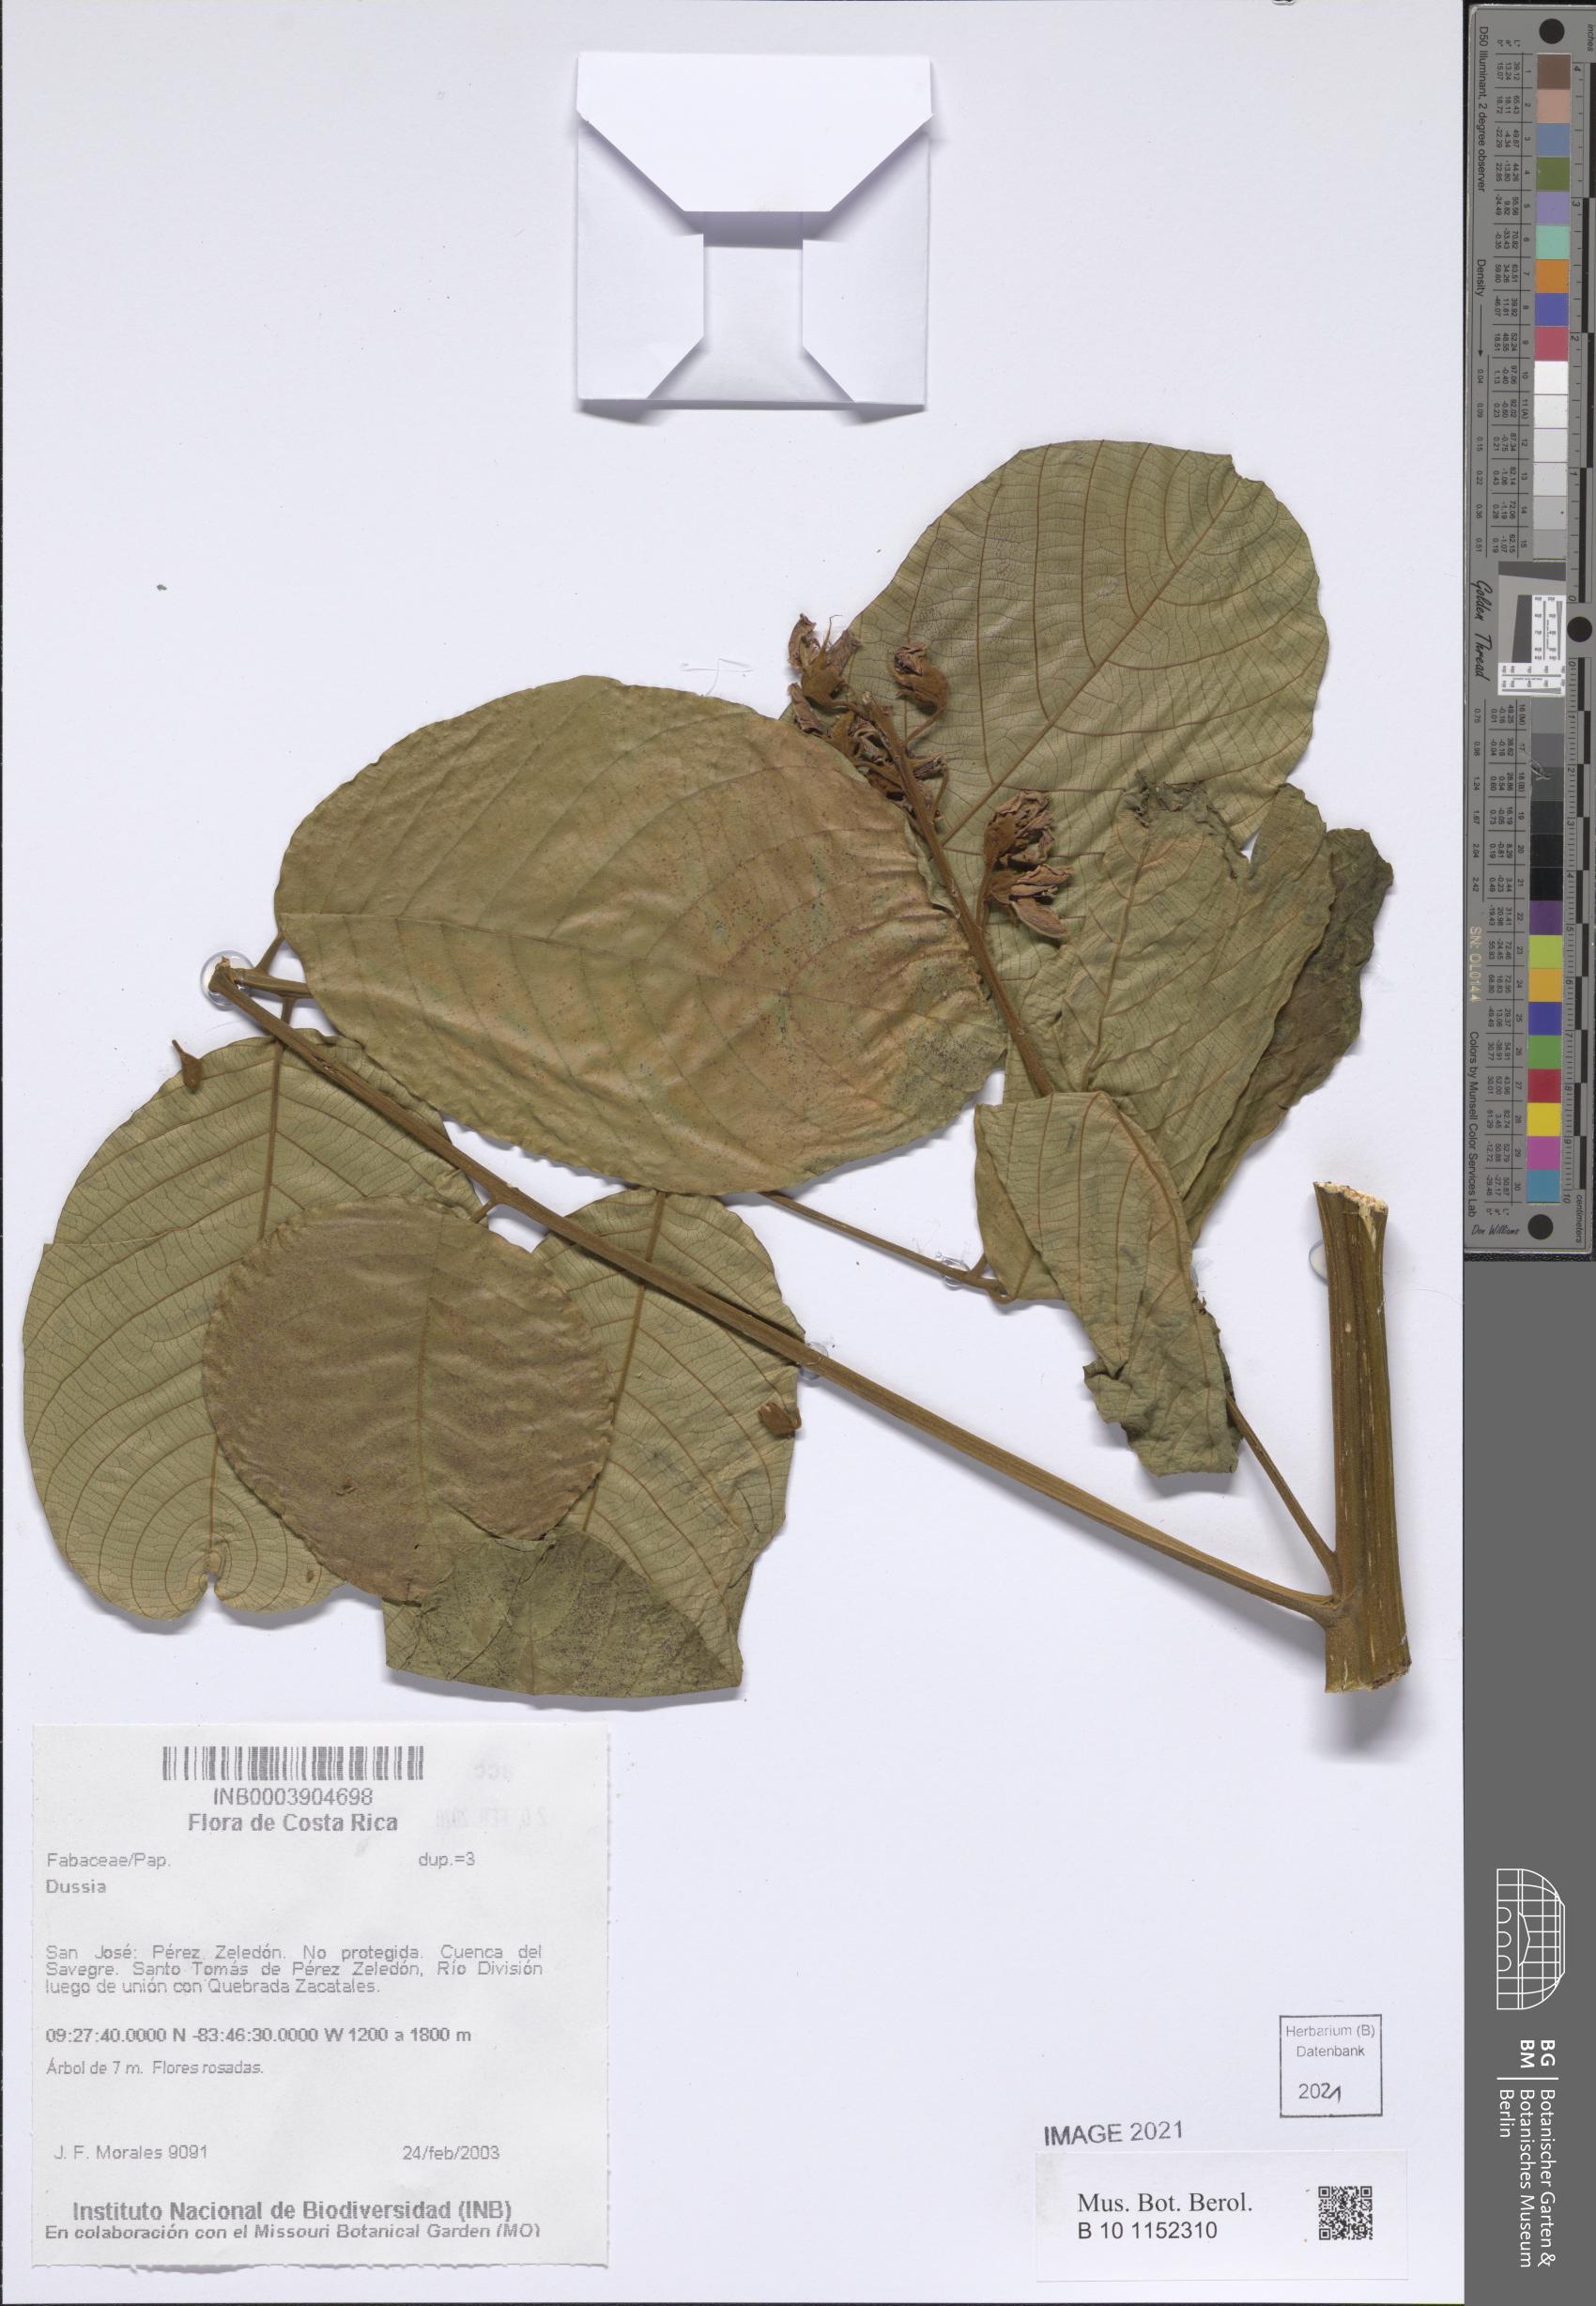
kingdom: Plantae
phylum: Tracheophyta
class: Magnoliopsida
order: Fabales
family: Fabaceae
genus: Dussia
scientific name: Dussia
